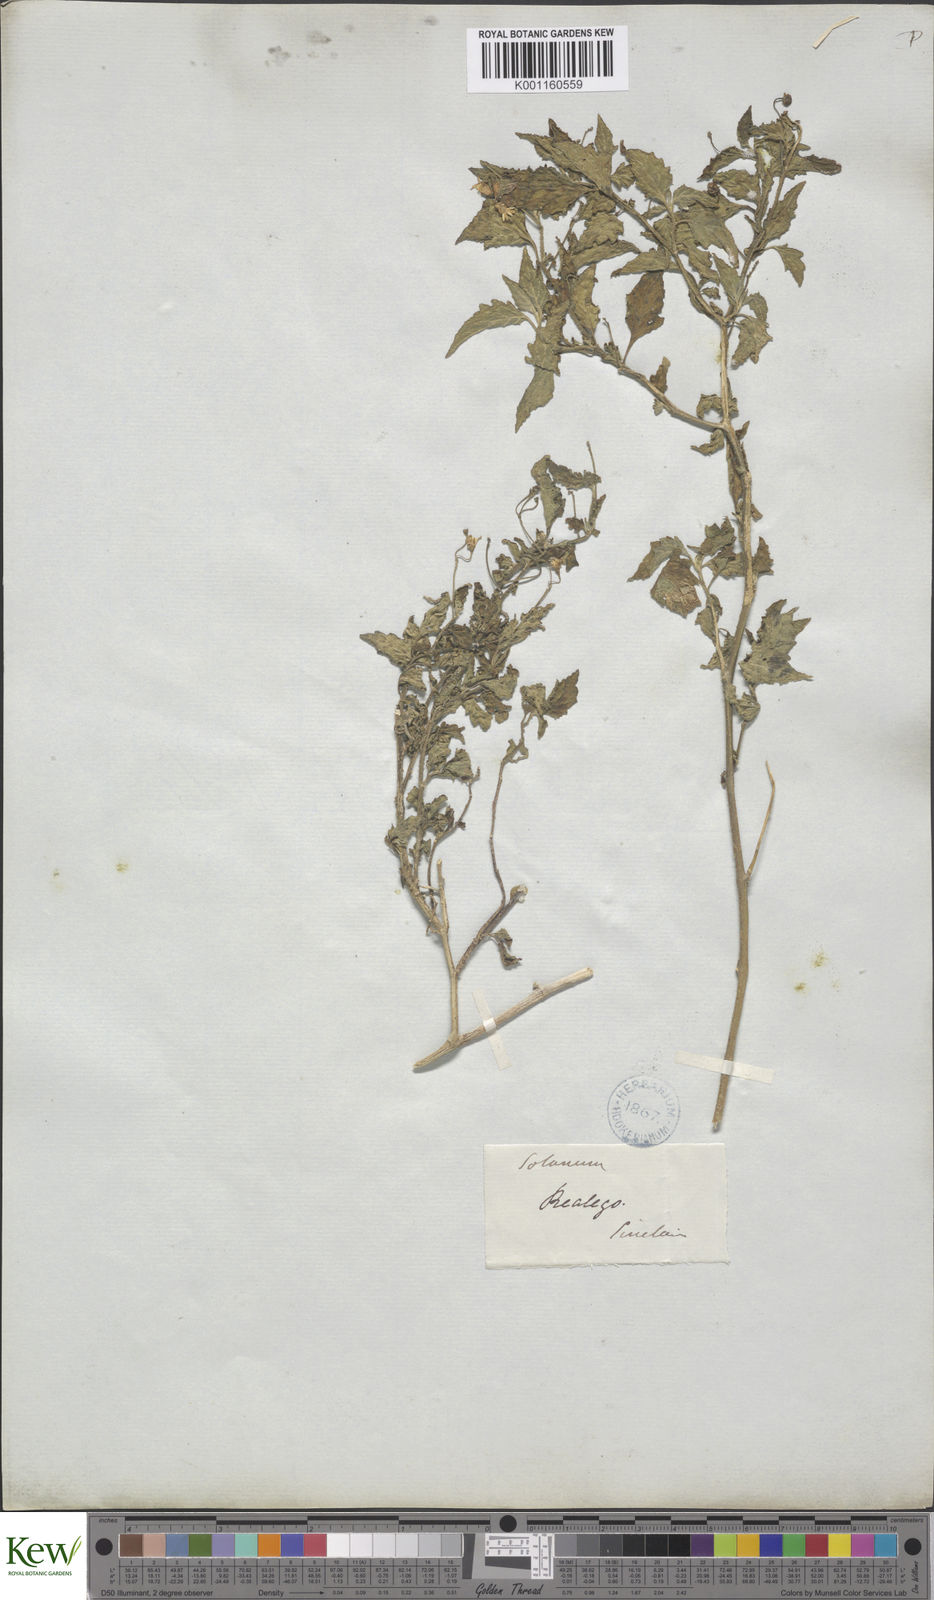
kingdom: Plantae
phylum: Tracheophyta
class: Magnoliopsida
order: Solanales
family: Solanaceae
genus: Solanum
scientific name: Solanum nigrum
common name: Black nightshade
